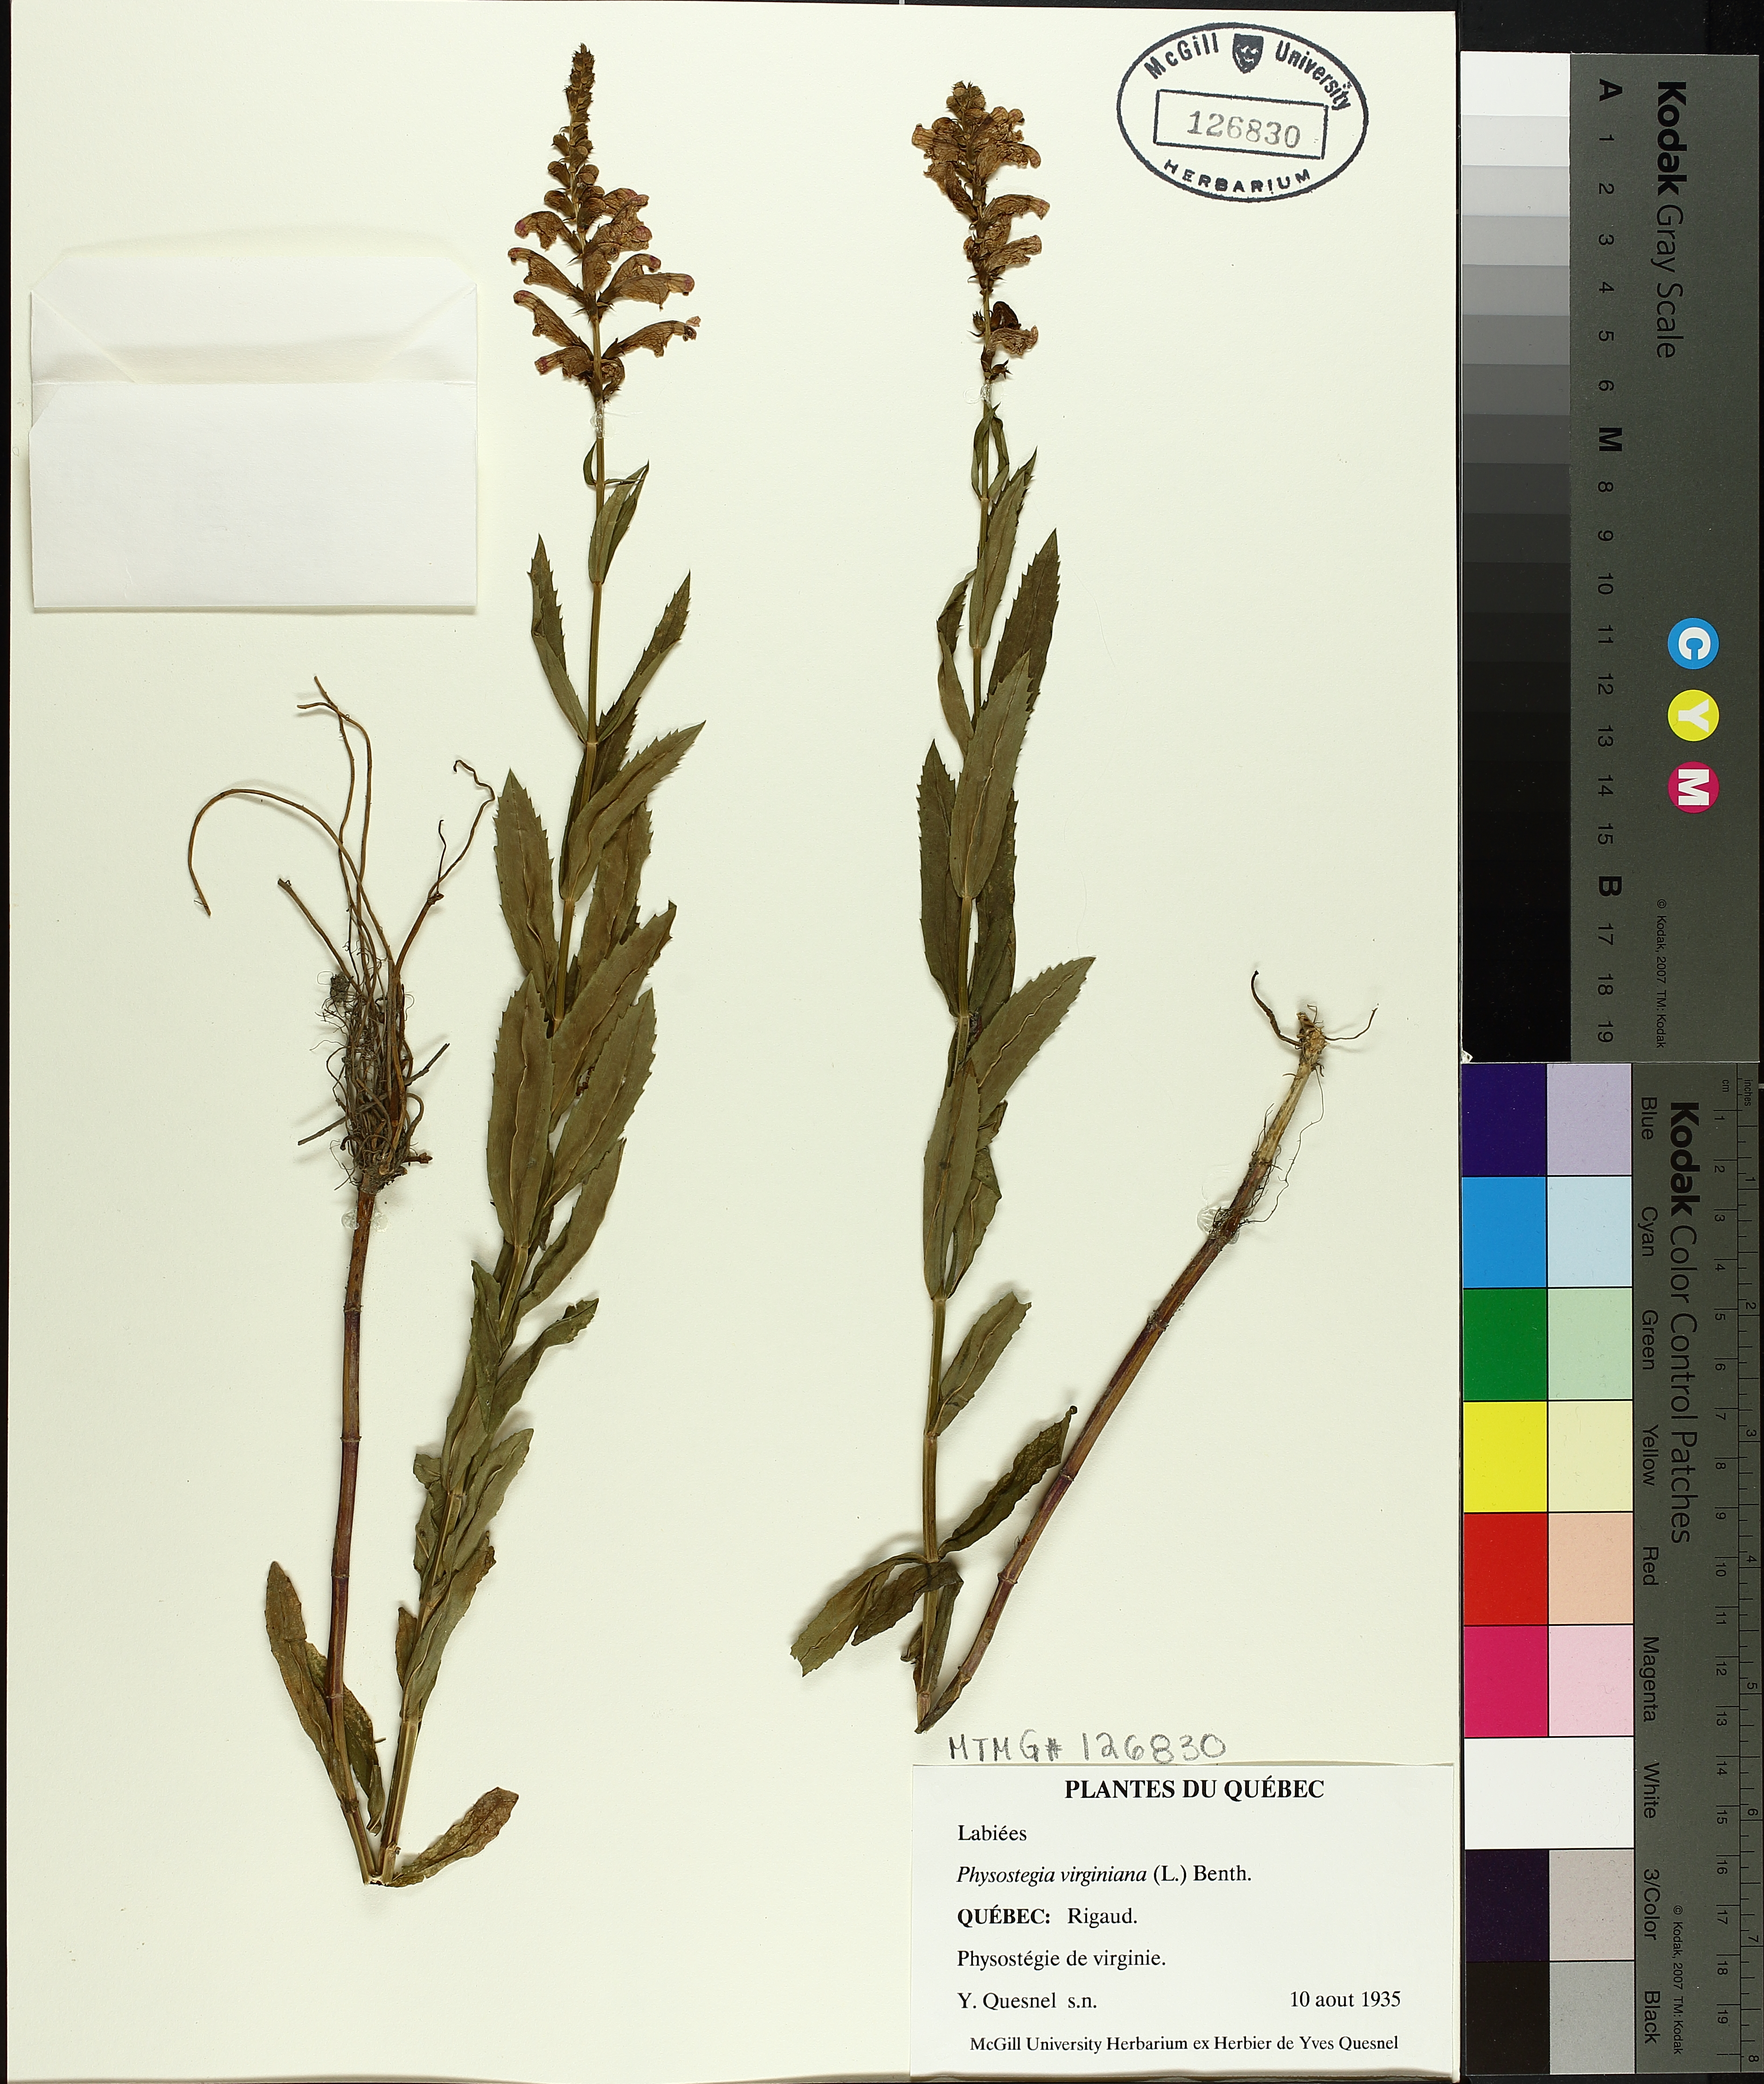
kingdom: Plantae
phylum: Tracheophyta
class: Magnoliopsida
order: Lamiales
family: Lamiaceae
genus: Physostegia
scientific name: Physostegia virginiana
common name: Obedient-plant
